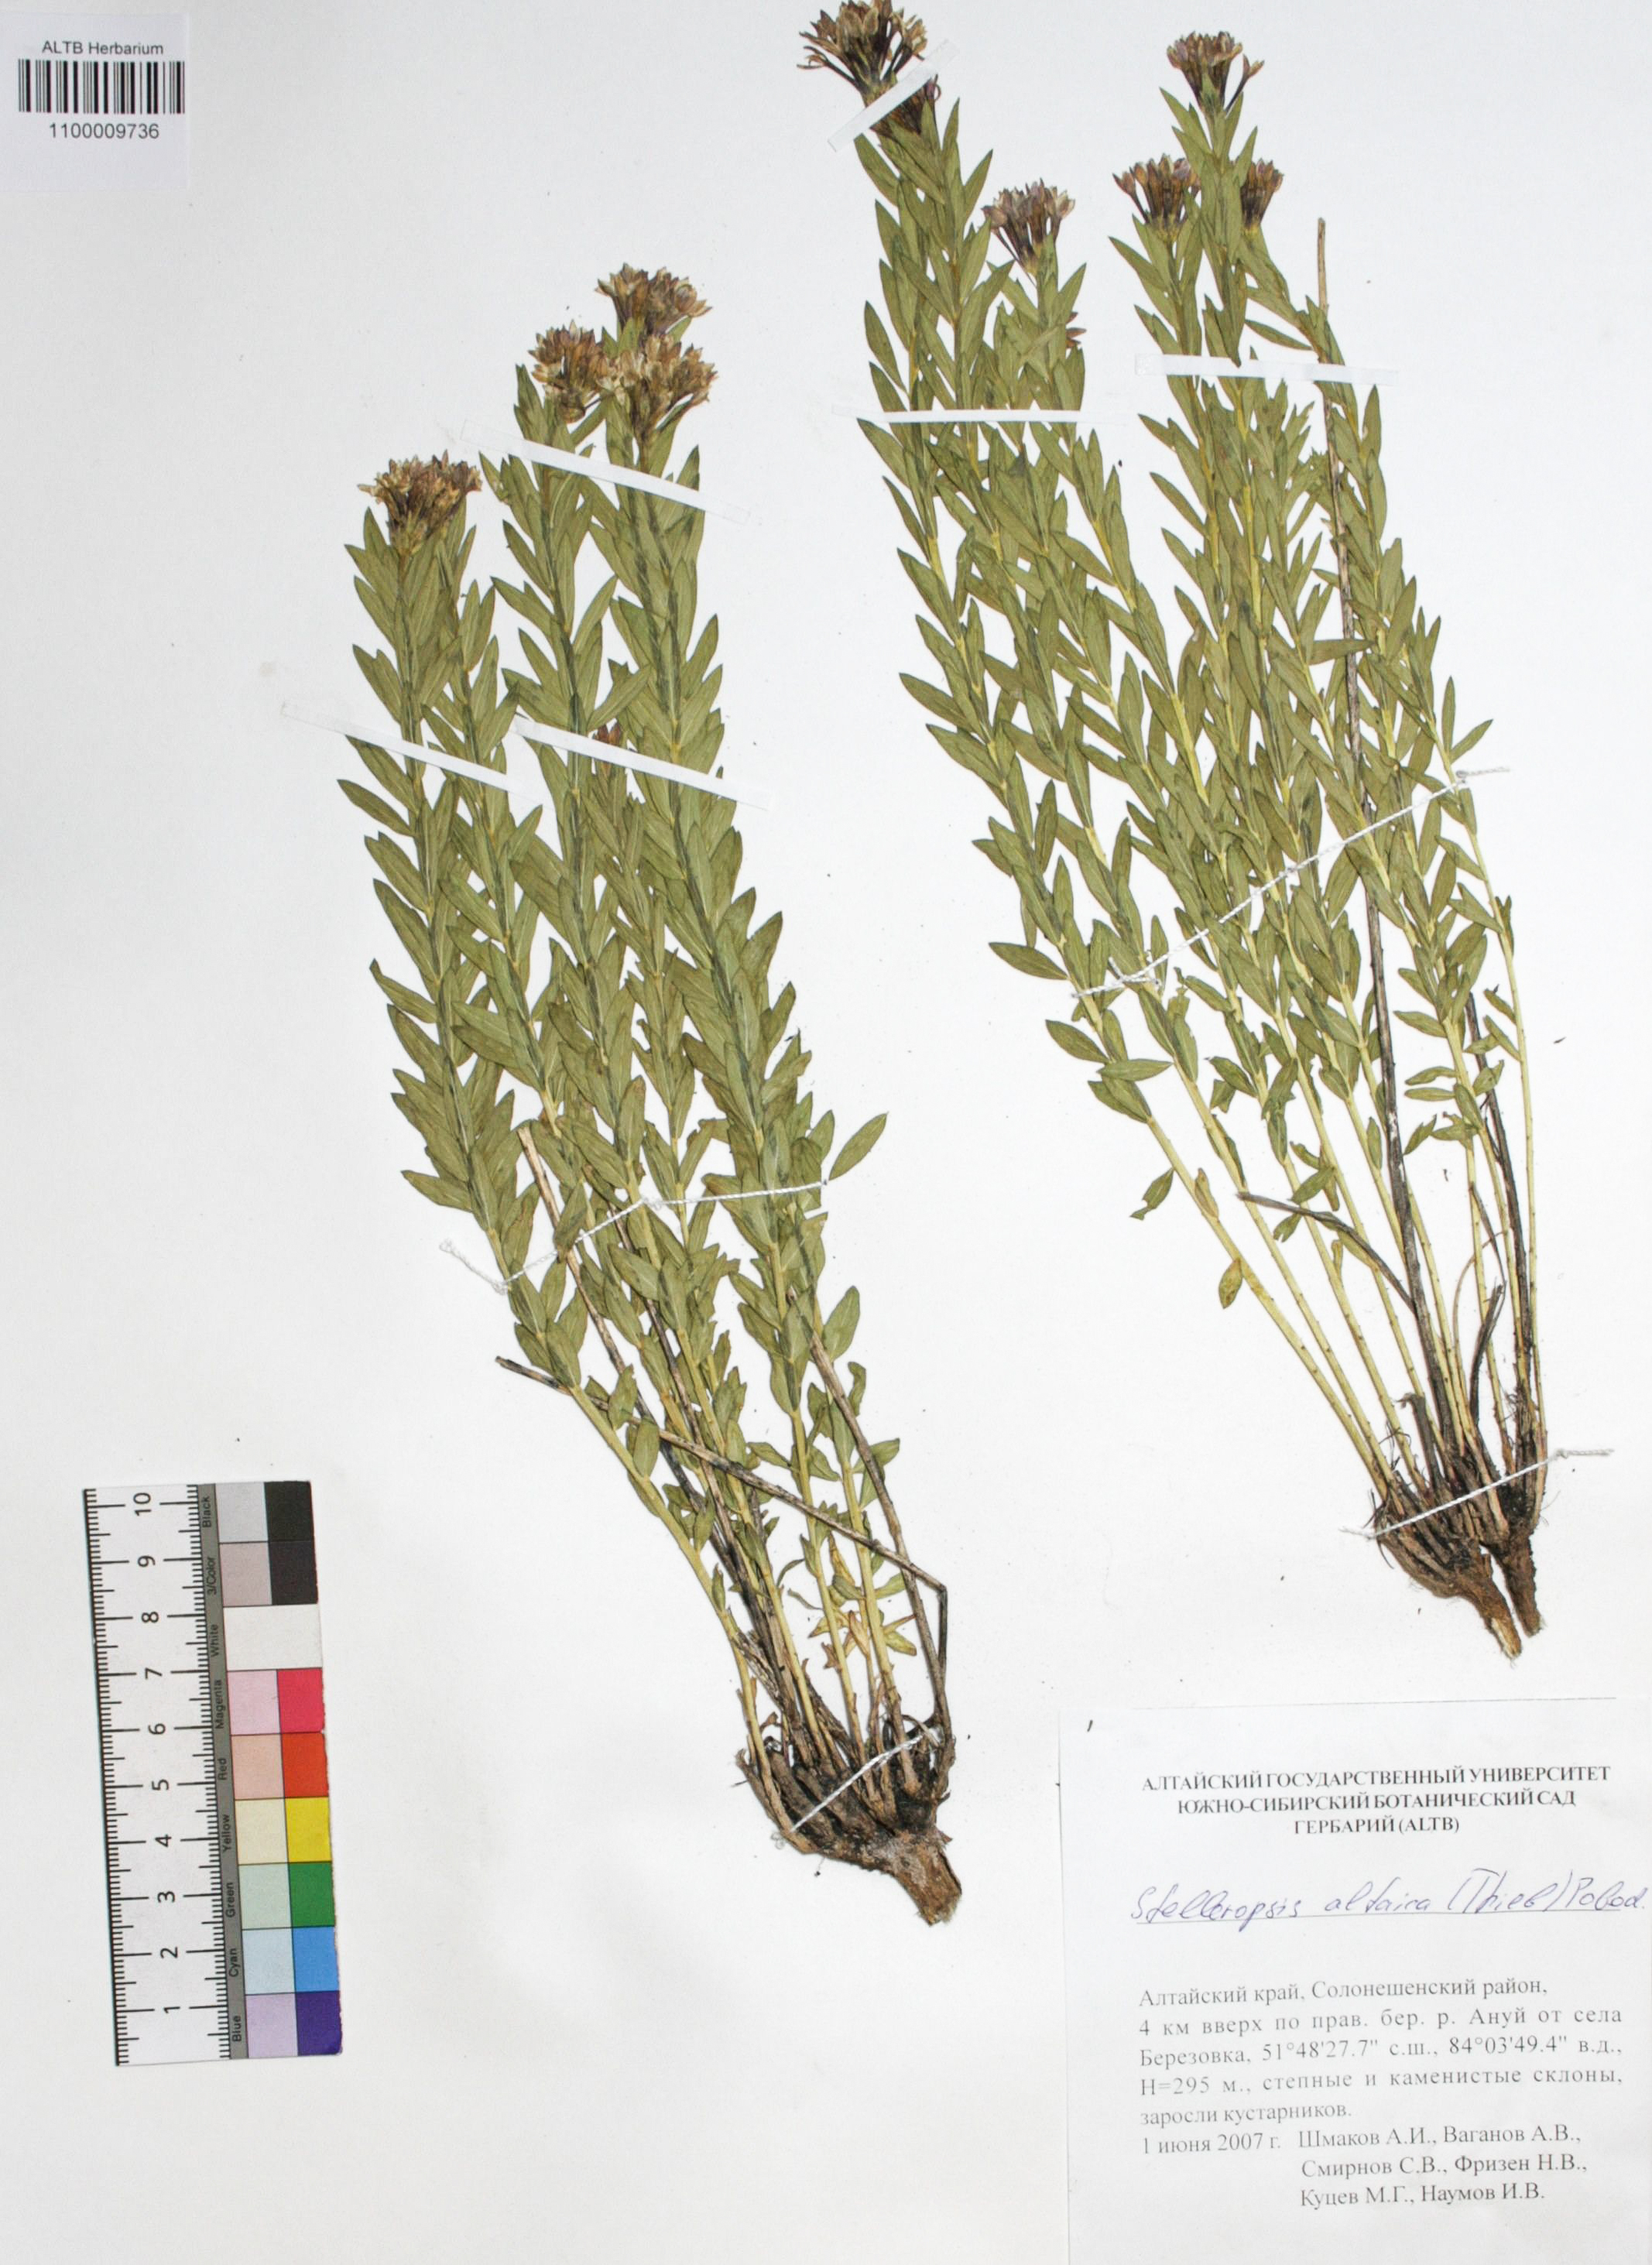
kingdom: Plantae
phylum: Tracheophyta
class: Magnoliopsida
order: Malvales
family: Thymelaeaceae
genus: Diarthron
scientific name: Diarthron altaicum
